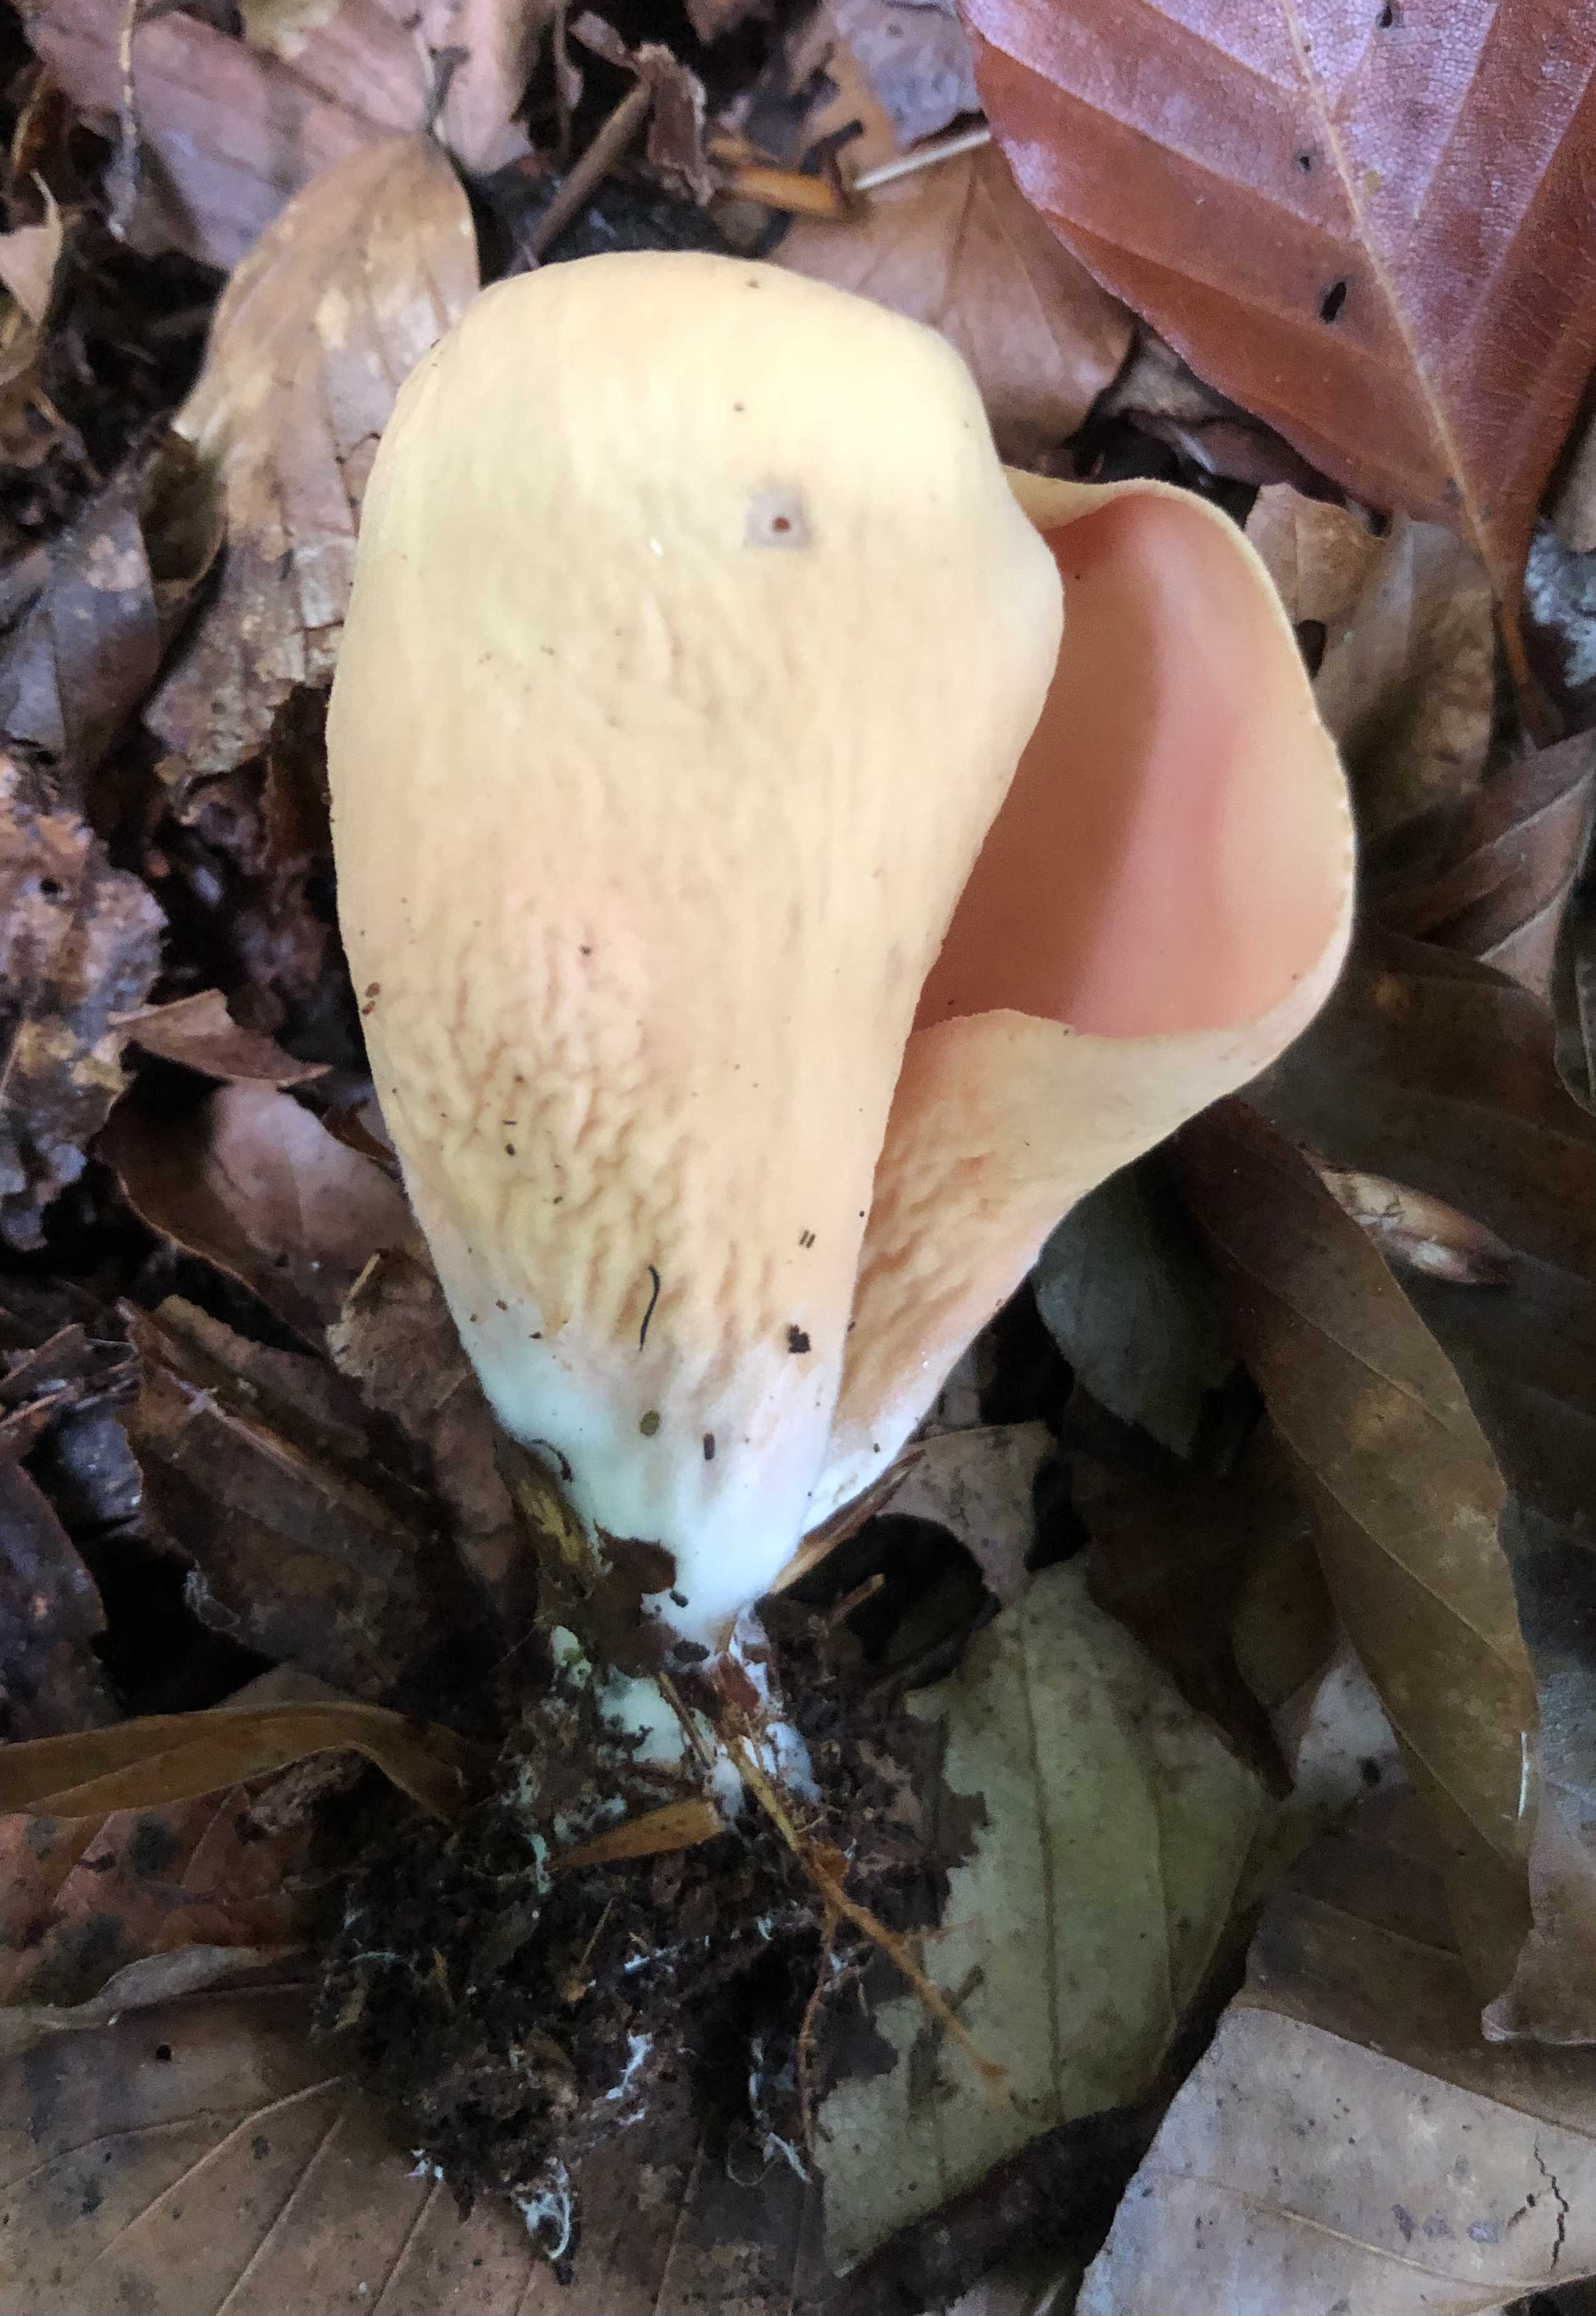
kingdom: Fungi
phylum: Ascomycota
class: Pezizomycetes
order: Pezizales
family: Otideaceae
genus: Otidea
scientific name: Otidea onotica
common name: æsel-ørebæger
